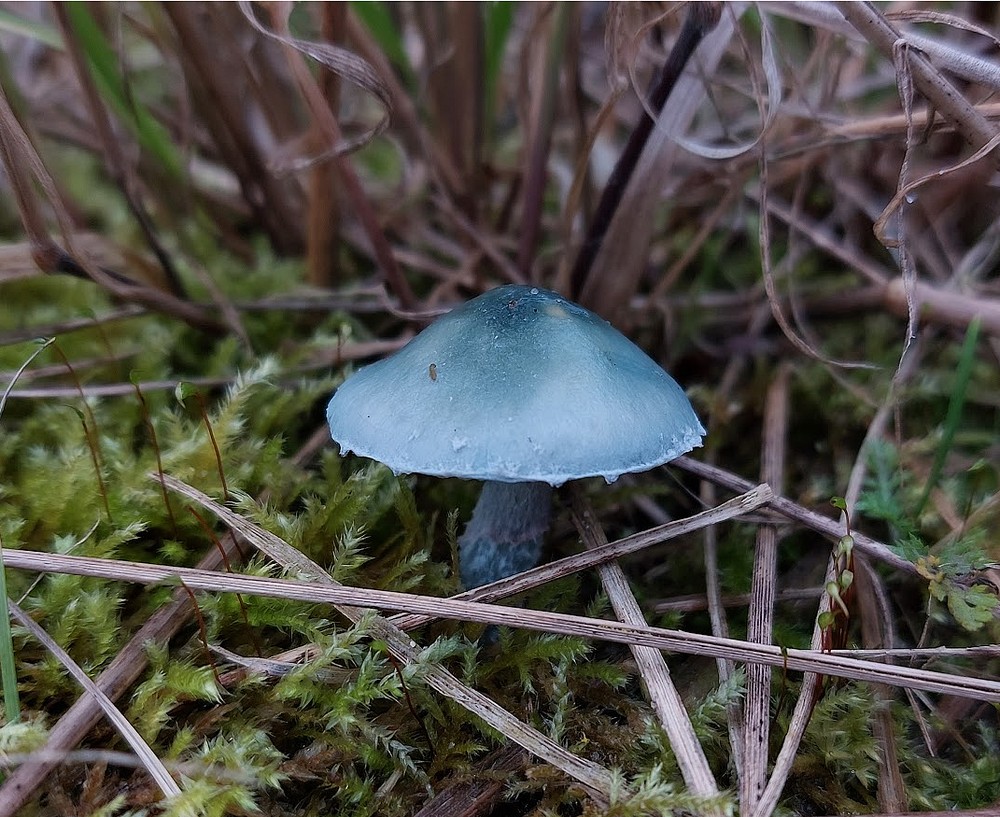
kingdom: Fungi
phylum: Basidiomycota
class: Agaricomycetes
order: Agaricales
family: Strophariaceae
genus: Stropharia
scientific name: Stropharia cyanea
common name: blågrøn bredblad
